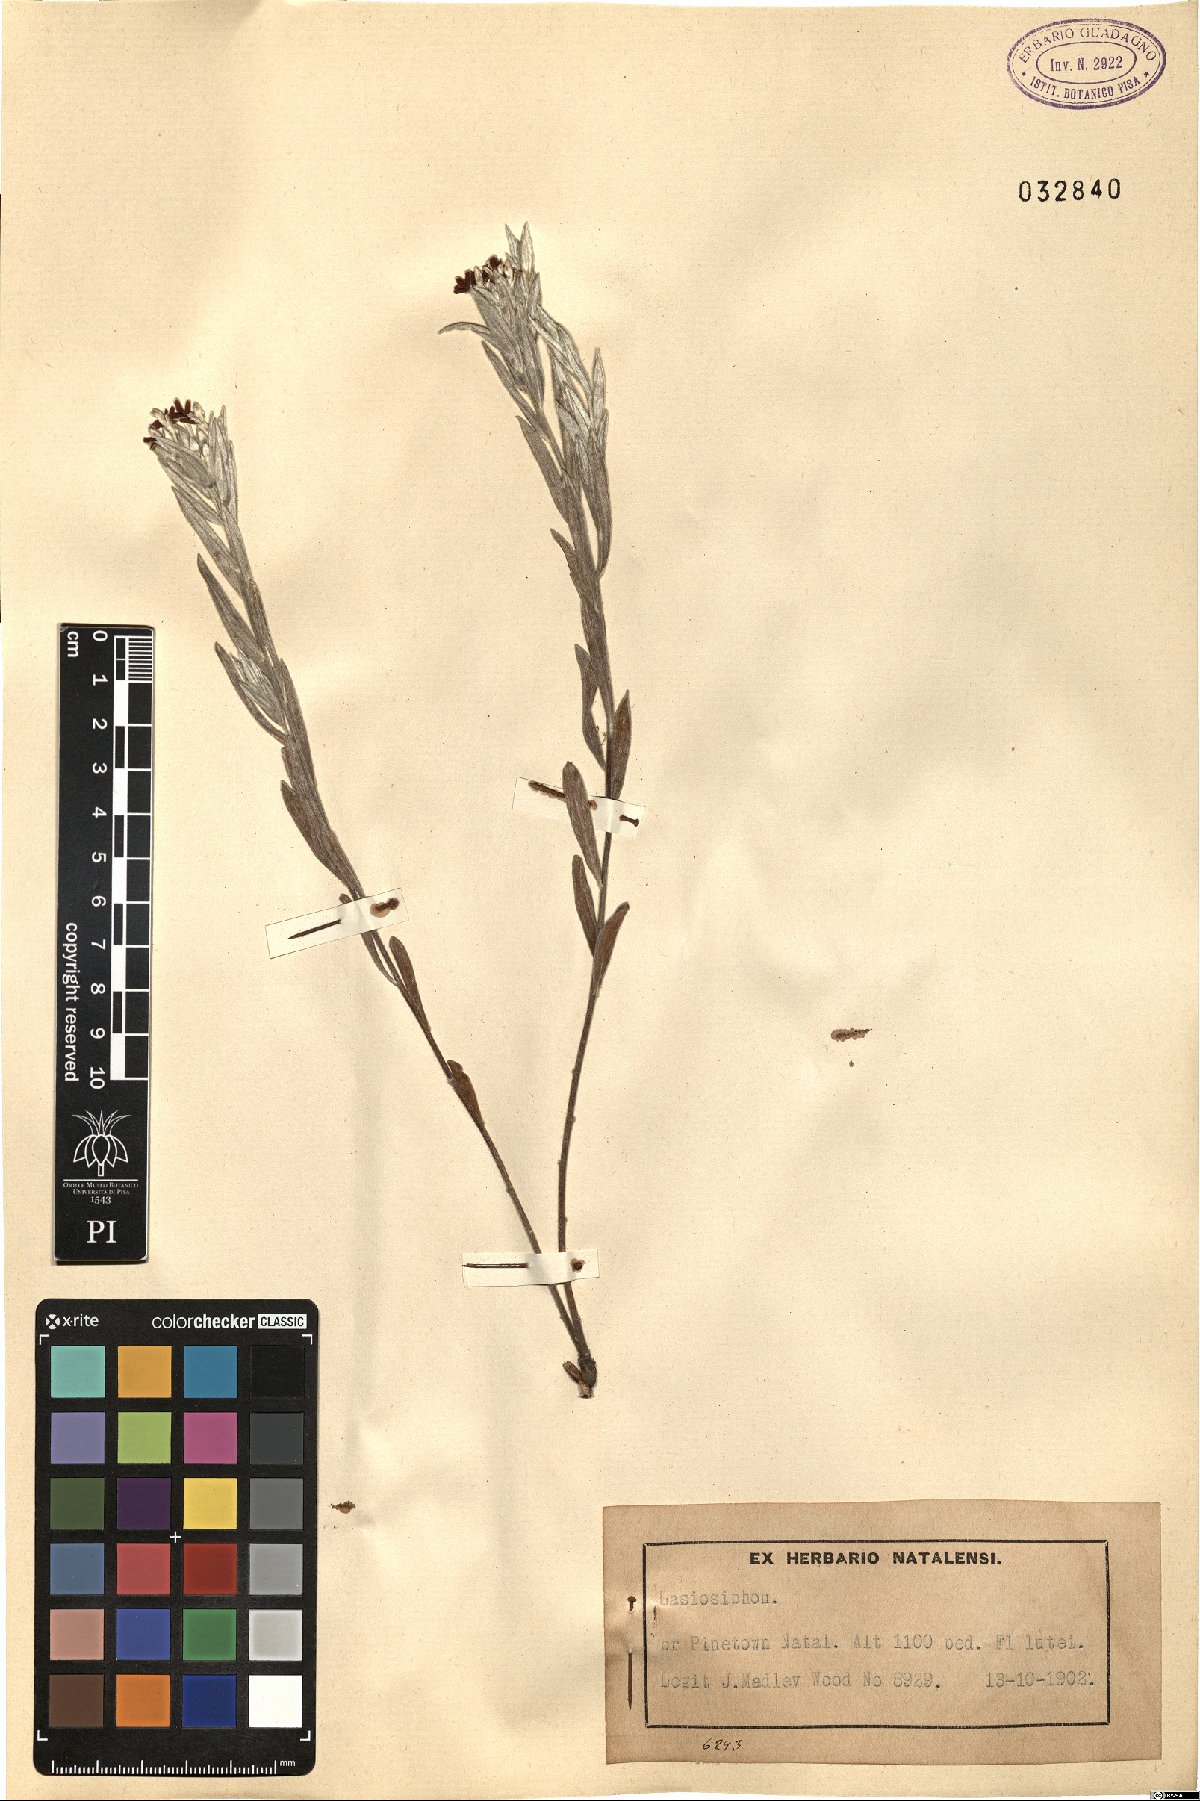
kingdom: Plantae
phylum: Tracheophyta
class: Magnoliopsida
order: Malvales
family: Thymelaeaceae
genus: Lasiosiphon
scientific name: Lasiosiphon
